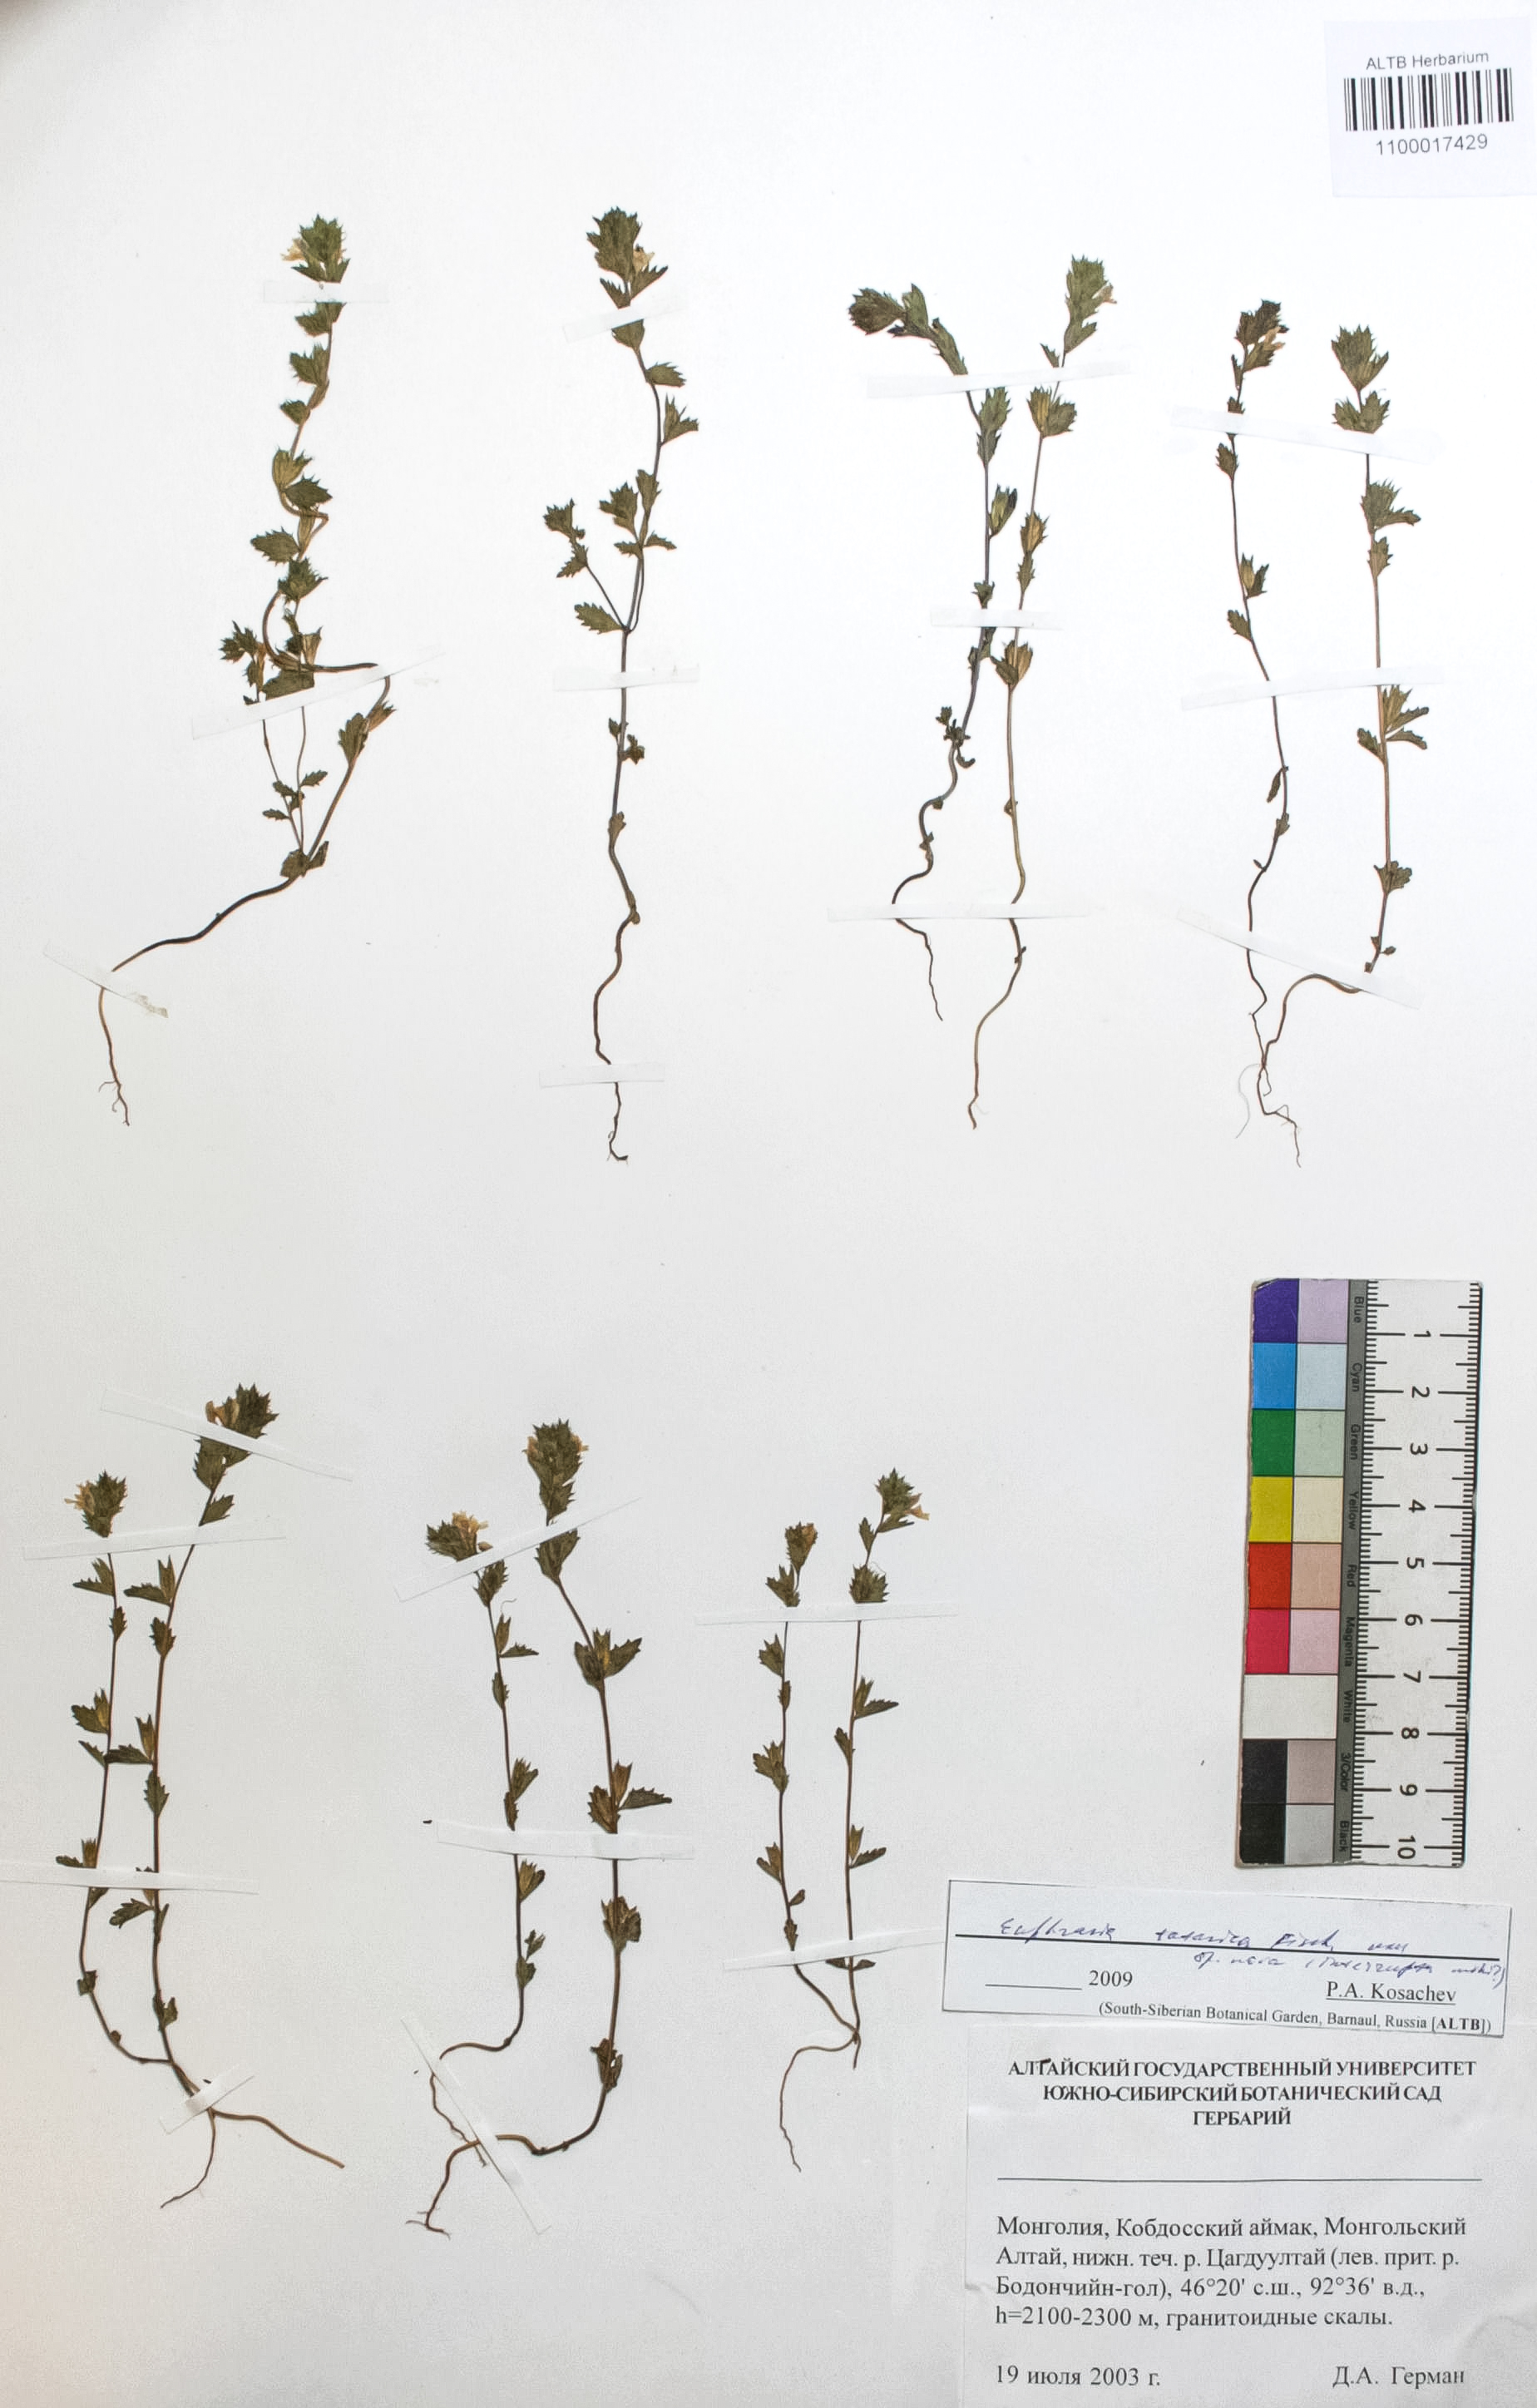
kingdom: Plantae
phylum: Tracheophyta
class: Magnoliopsida
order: Lamiales
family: Orobanchaceae
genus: Euphrasia
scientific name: Euphrasia pectinata
